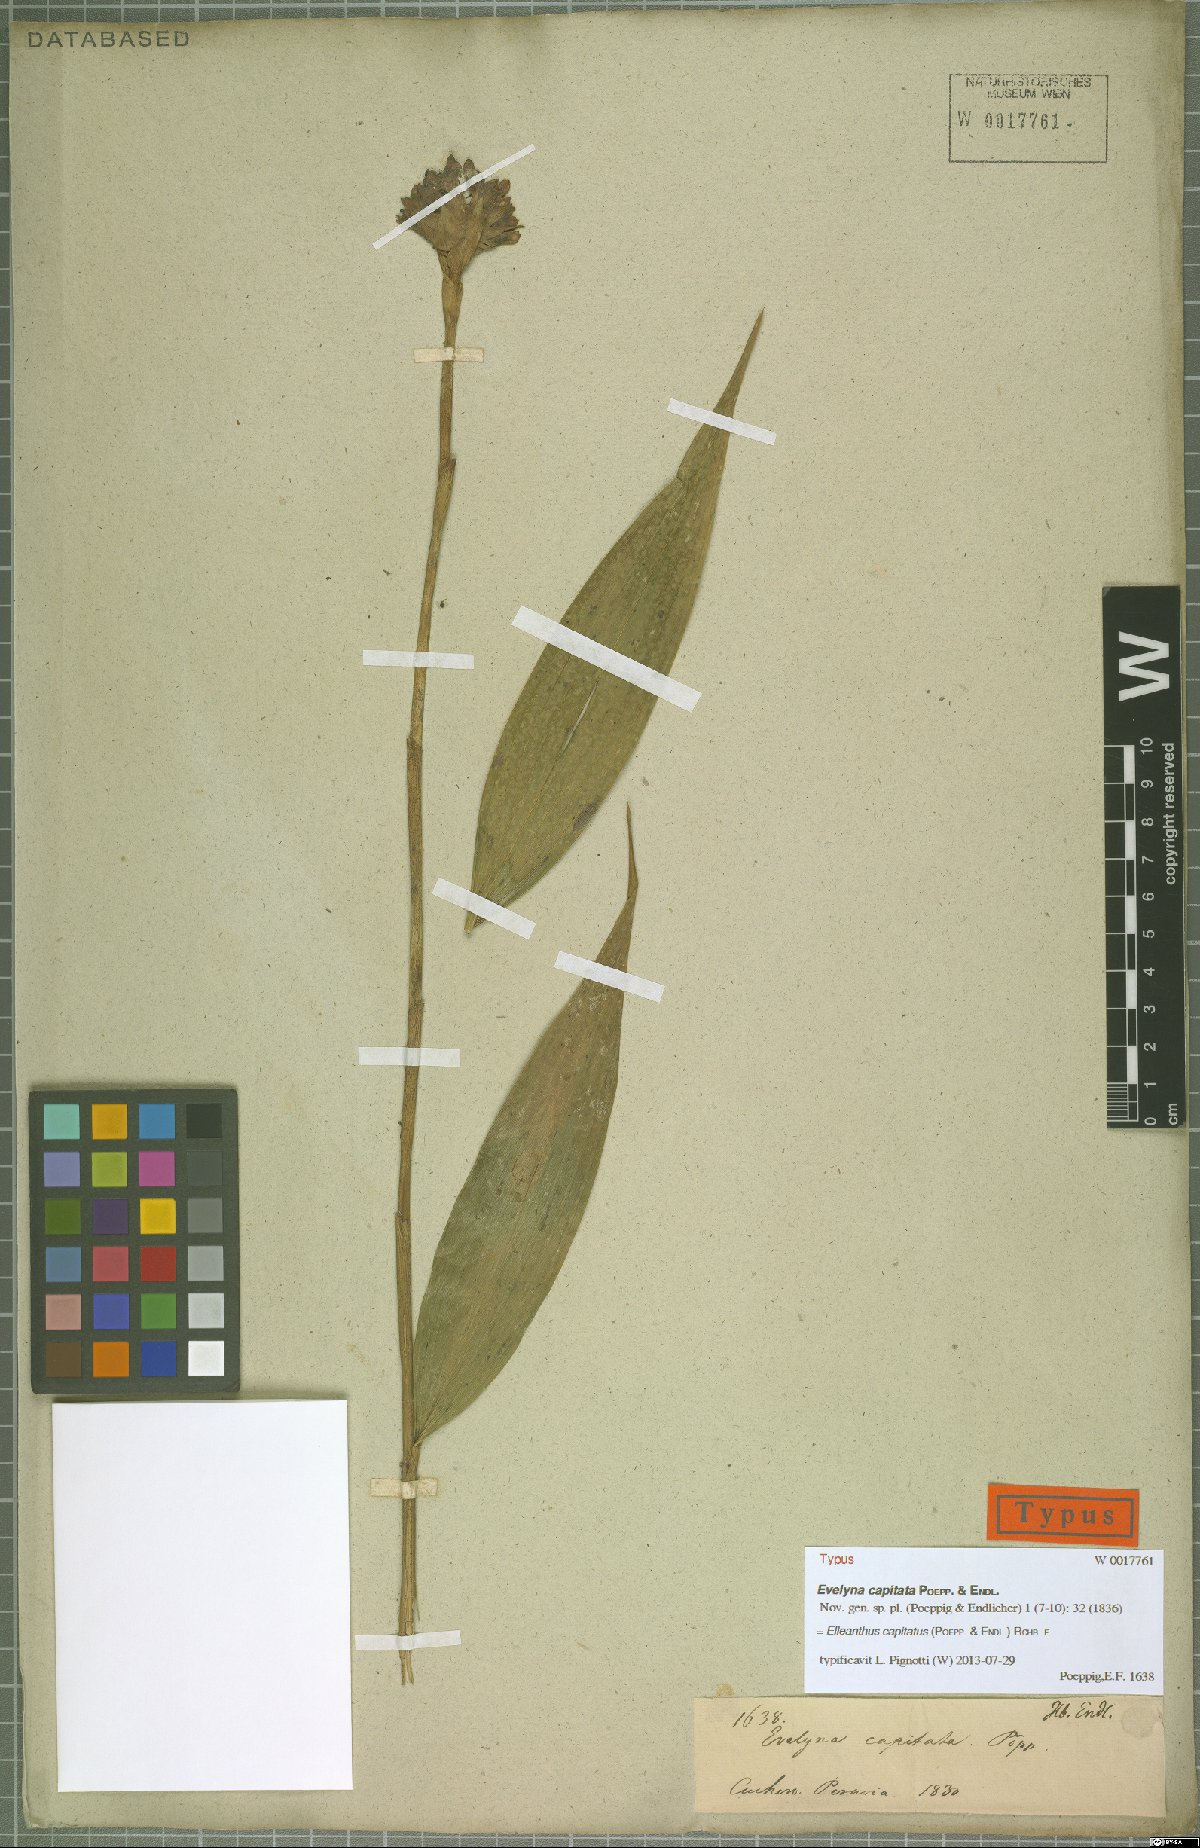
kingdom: Plantae
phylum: Tracheophyta
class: Liliopsida
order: Asparagales
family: Orchidaceae
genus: Elleanthus
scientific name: Elleanthus capitatus
